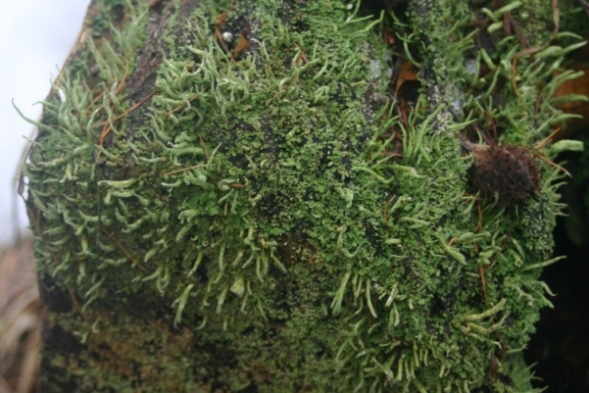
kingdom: Fungi
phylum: Ascomycota
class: Lecanoromycetes
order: Lecanorales
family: Cladoniaceae
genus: Cladonia
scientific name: Cladonia coniocraea
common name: træfods-bægerlav
